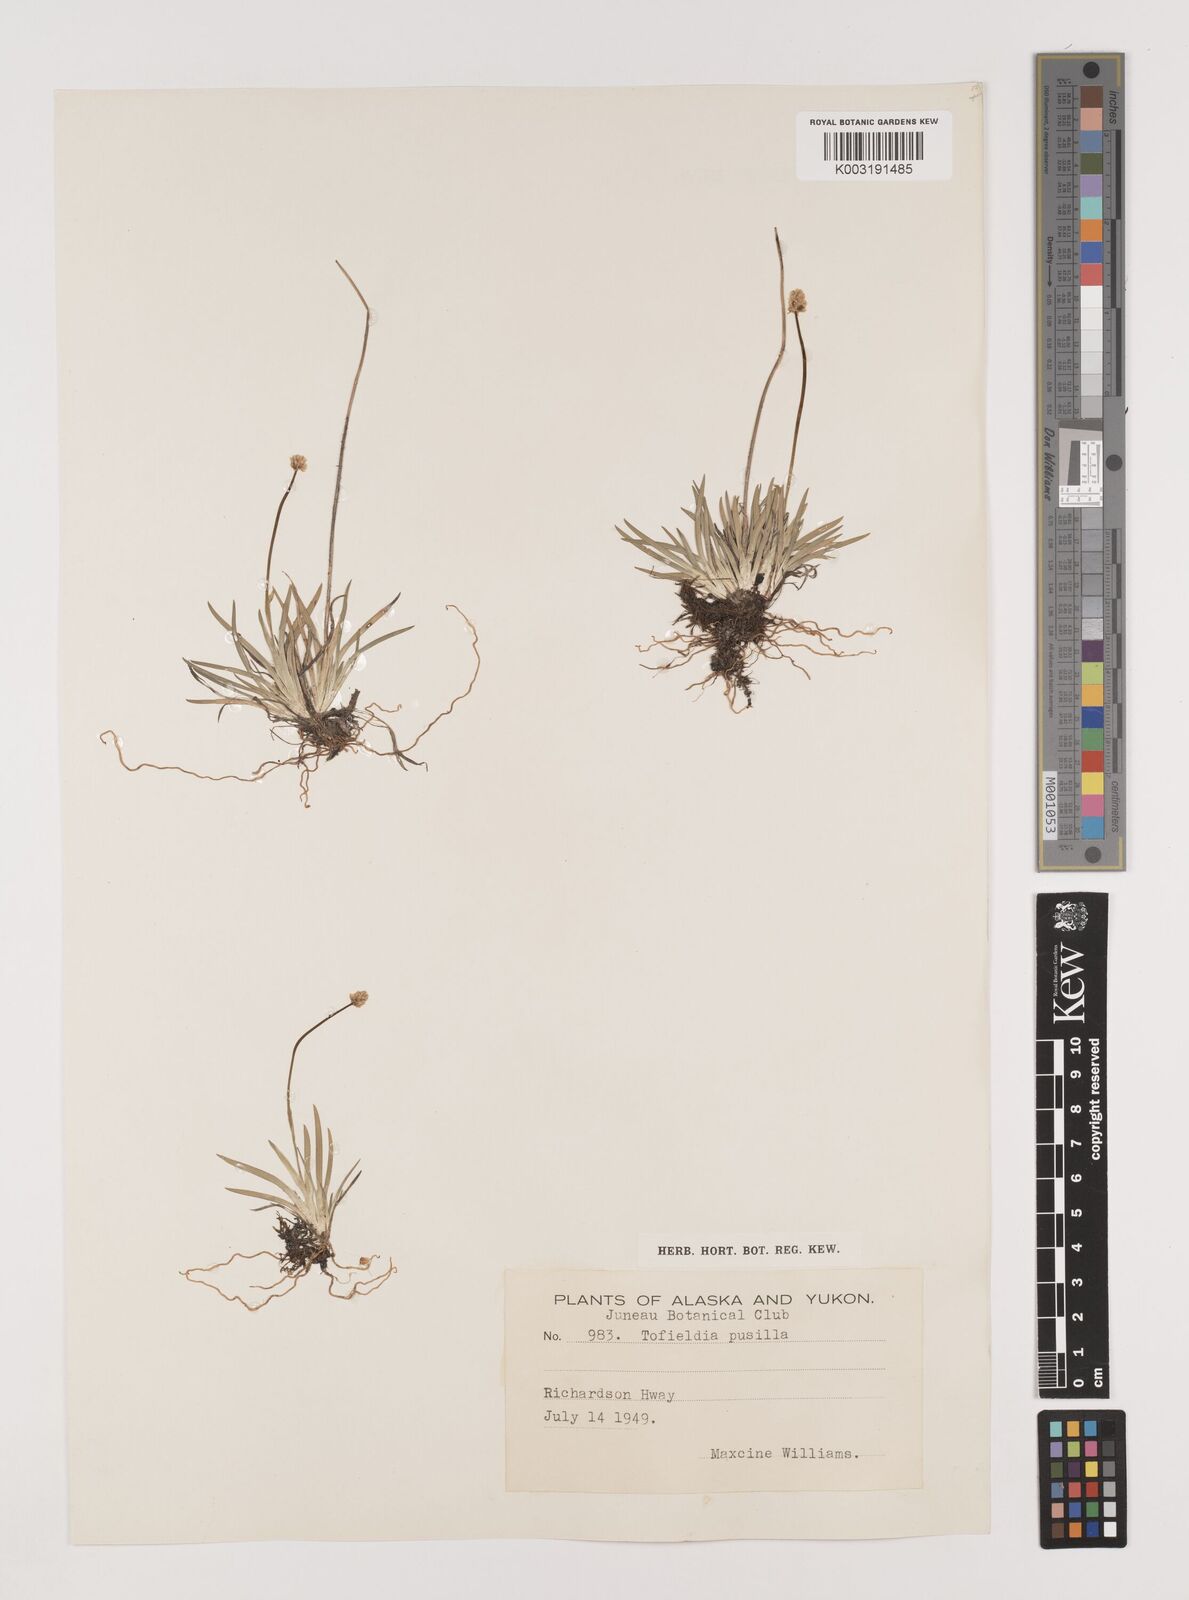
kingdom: Plantae
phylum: Tracheophyta
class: Liliopsida
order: Alismatales
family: Tofieldiaceae
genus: Tofieldia
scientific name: Tofieldia pusilla
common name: Scottish false asphodel
